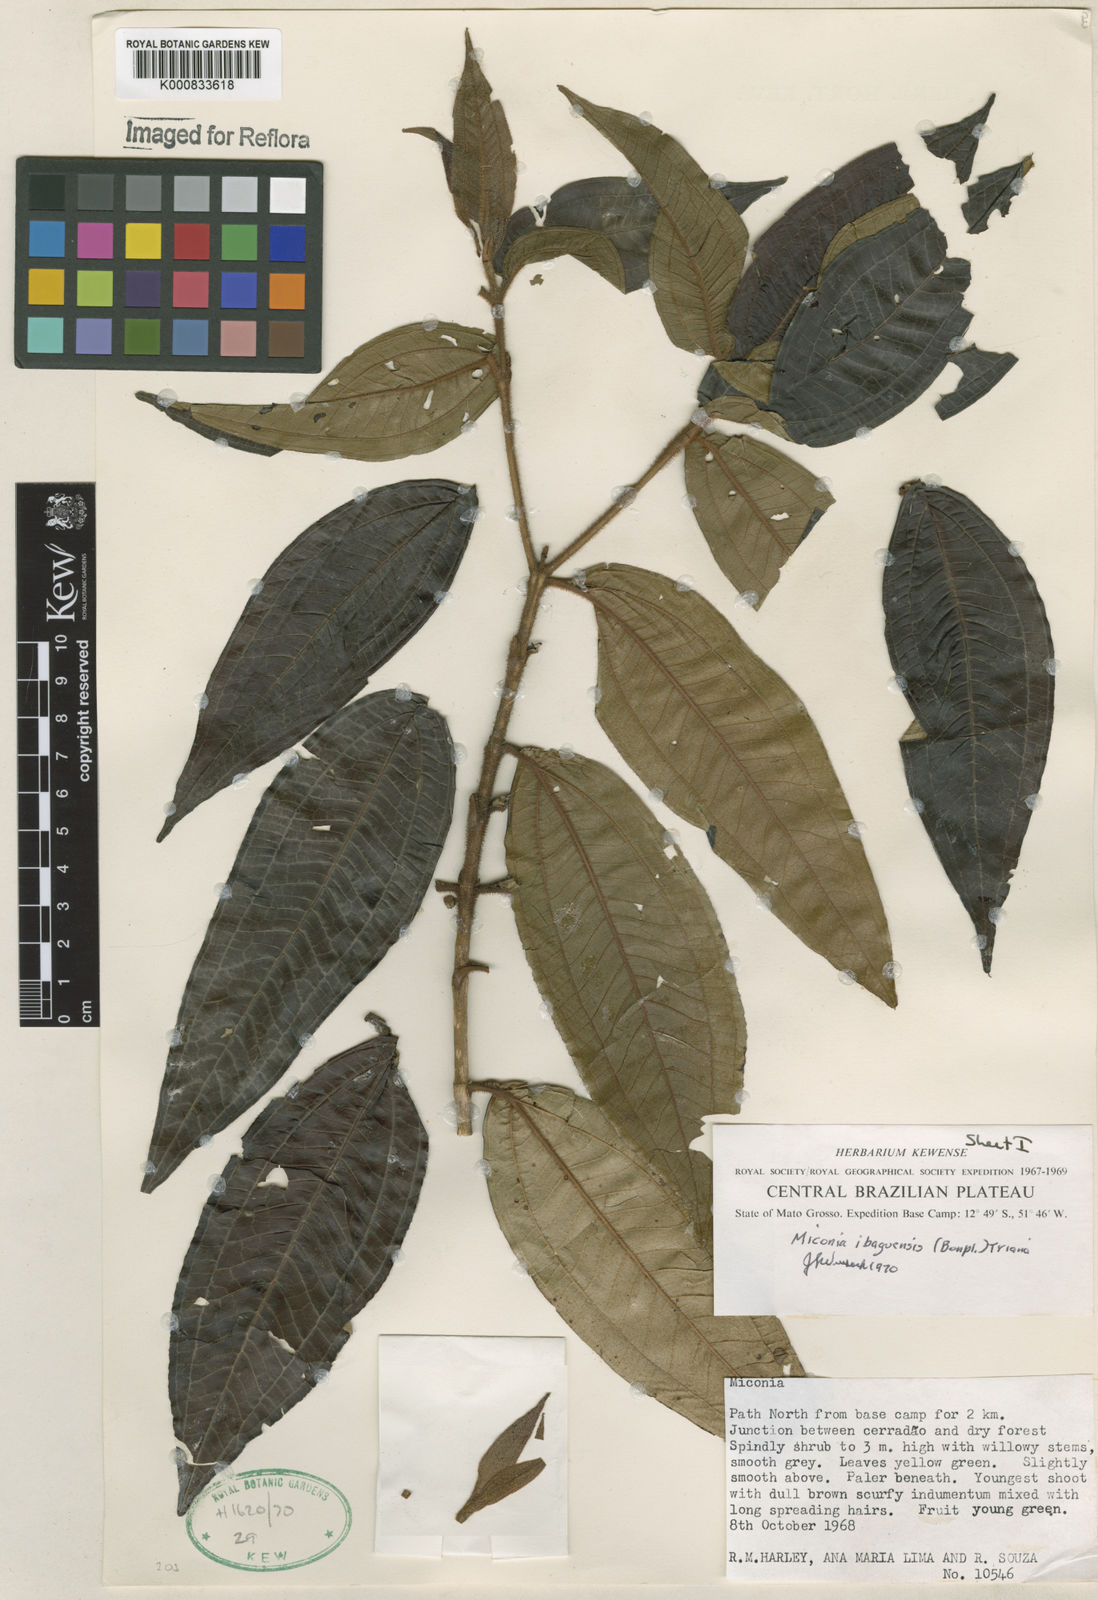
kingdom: Plantae
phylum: Tracheophyta
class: Magnoliopsida
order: Myrtales
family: Melastomataceae
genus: Miconia
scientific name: Miconia ibaguensis
